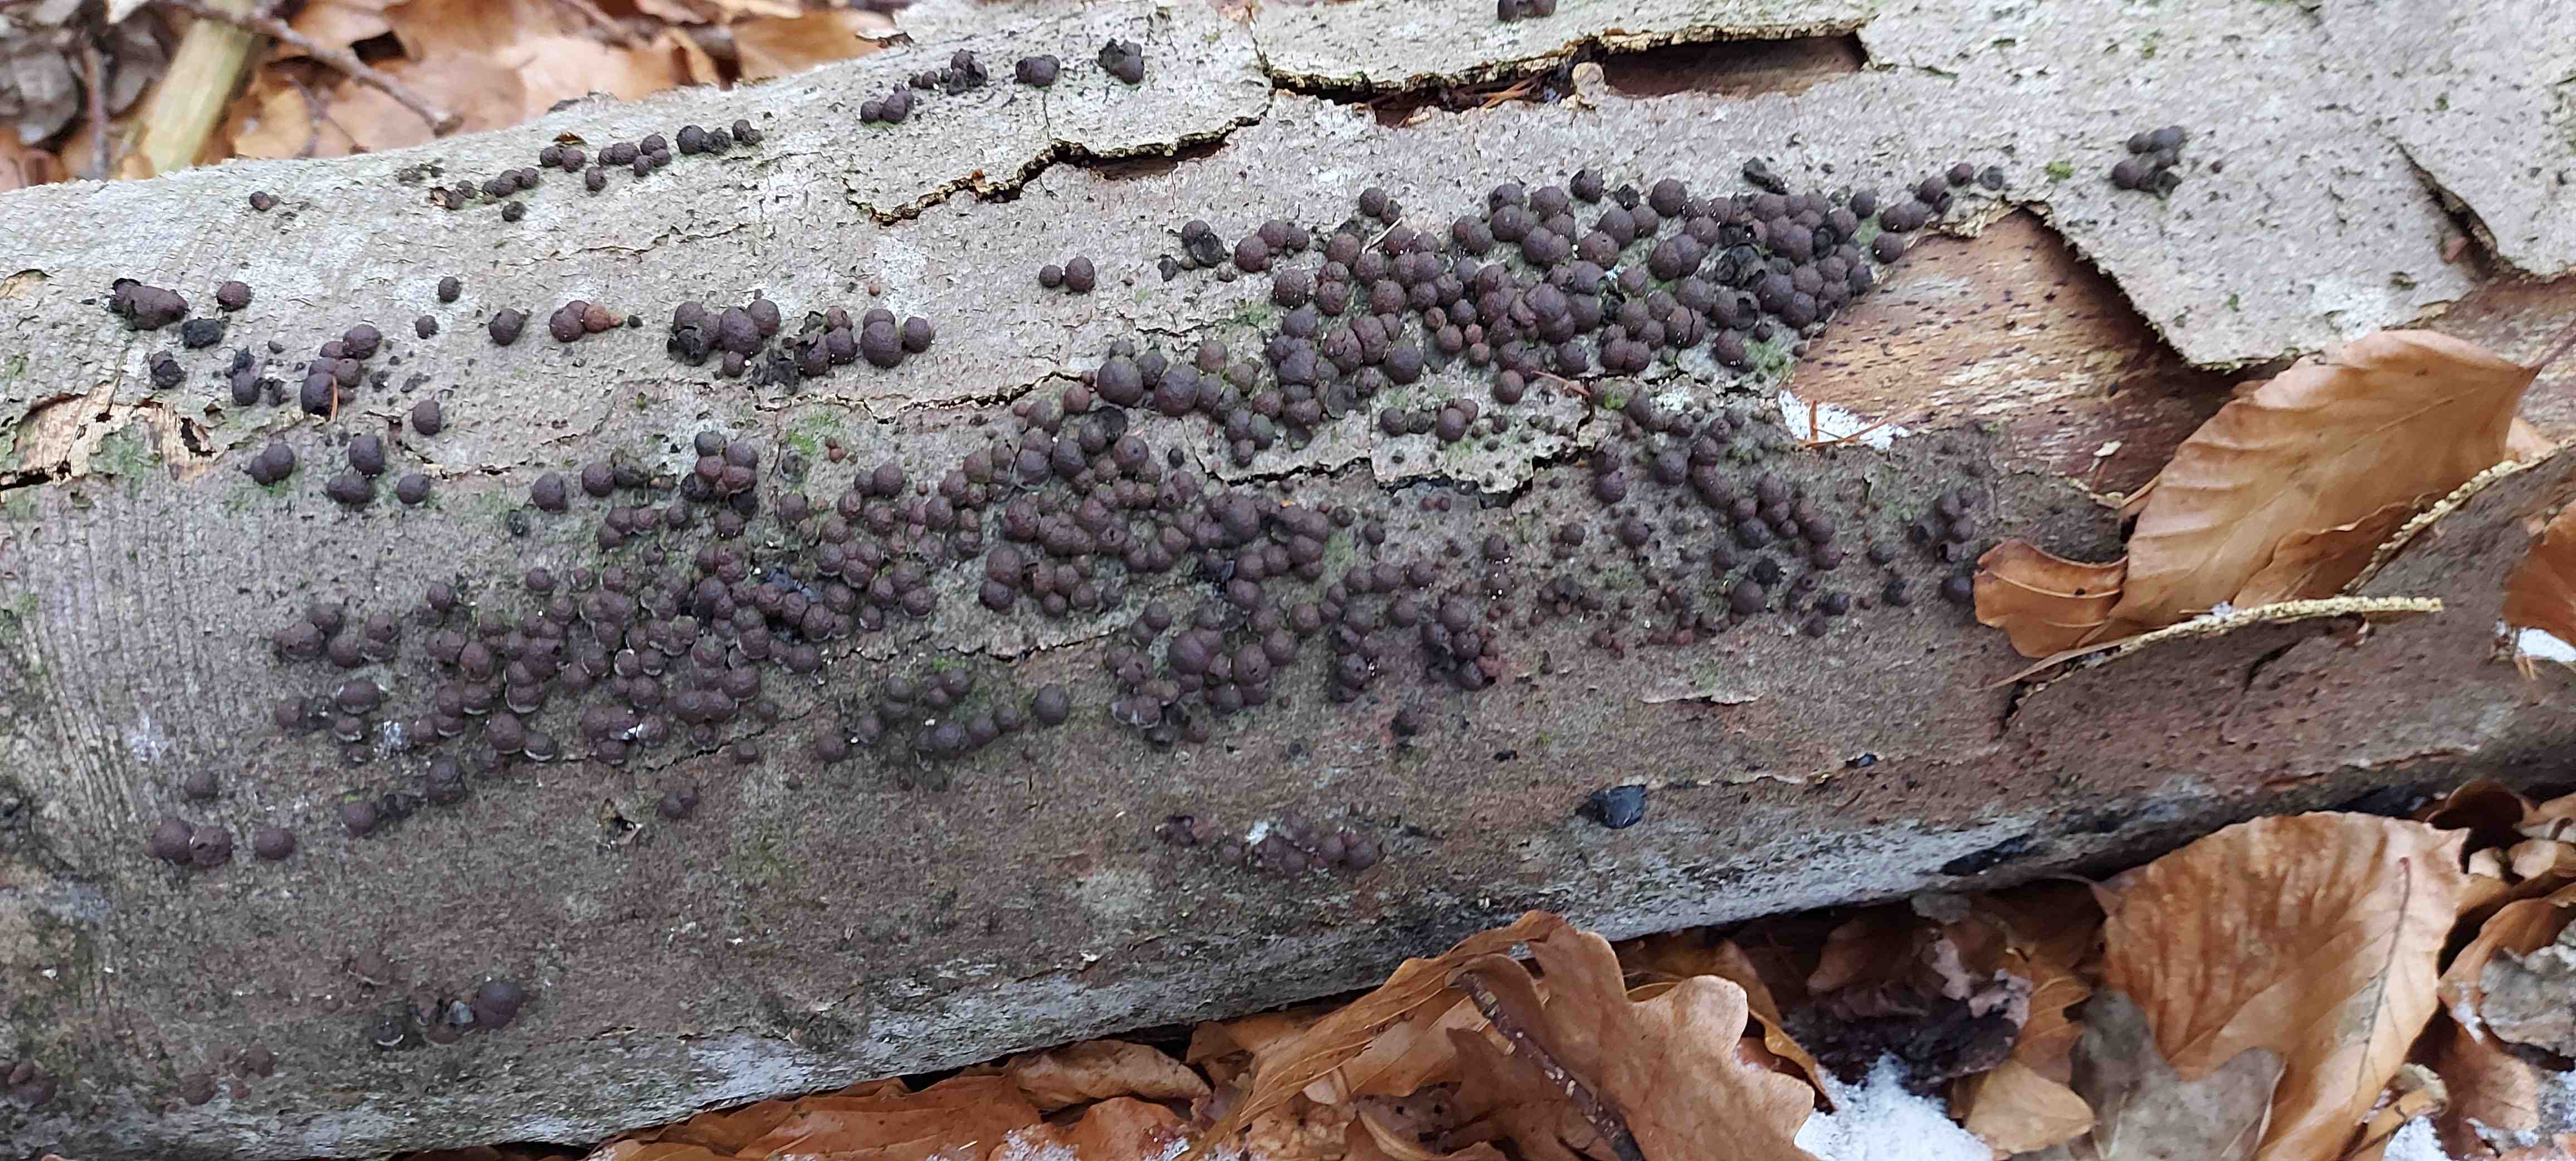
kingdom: Fungi
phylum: Ascomycota
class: Sordariomycetes
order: Xylariales
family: Hypoxylaceae
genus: Hypoxylon
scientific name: Hypoxylon fragiforme
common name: kuljordbær
